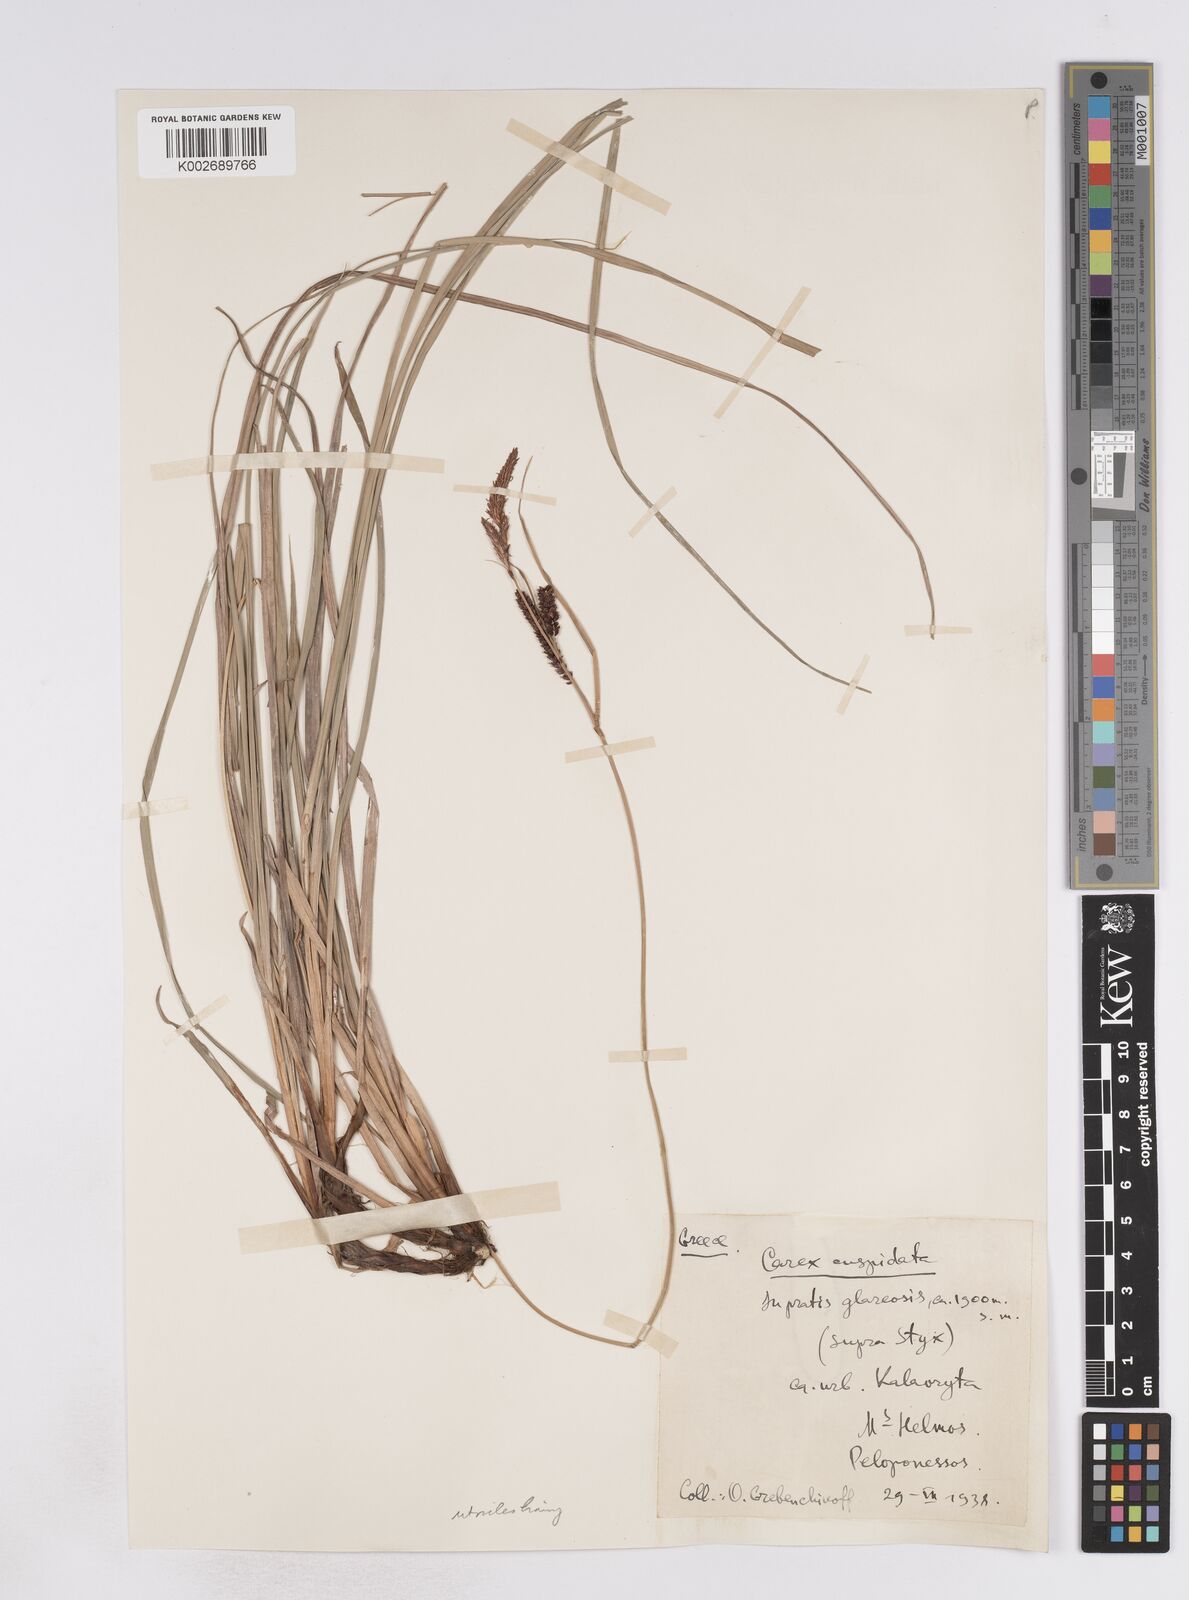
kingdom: Plantae
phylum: Tracheophyta
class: Liliopsida
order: Poales
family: Cyperaceae
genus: Carex
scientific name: Carex flacca
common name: Glaucous sedge
